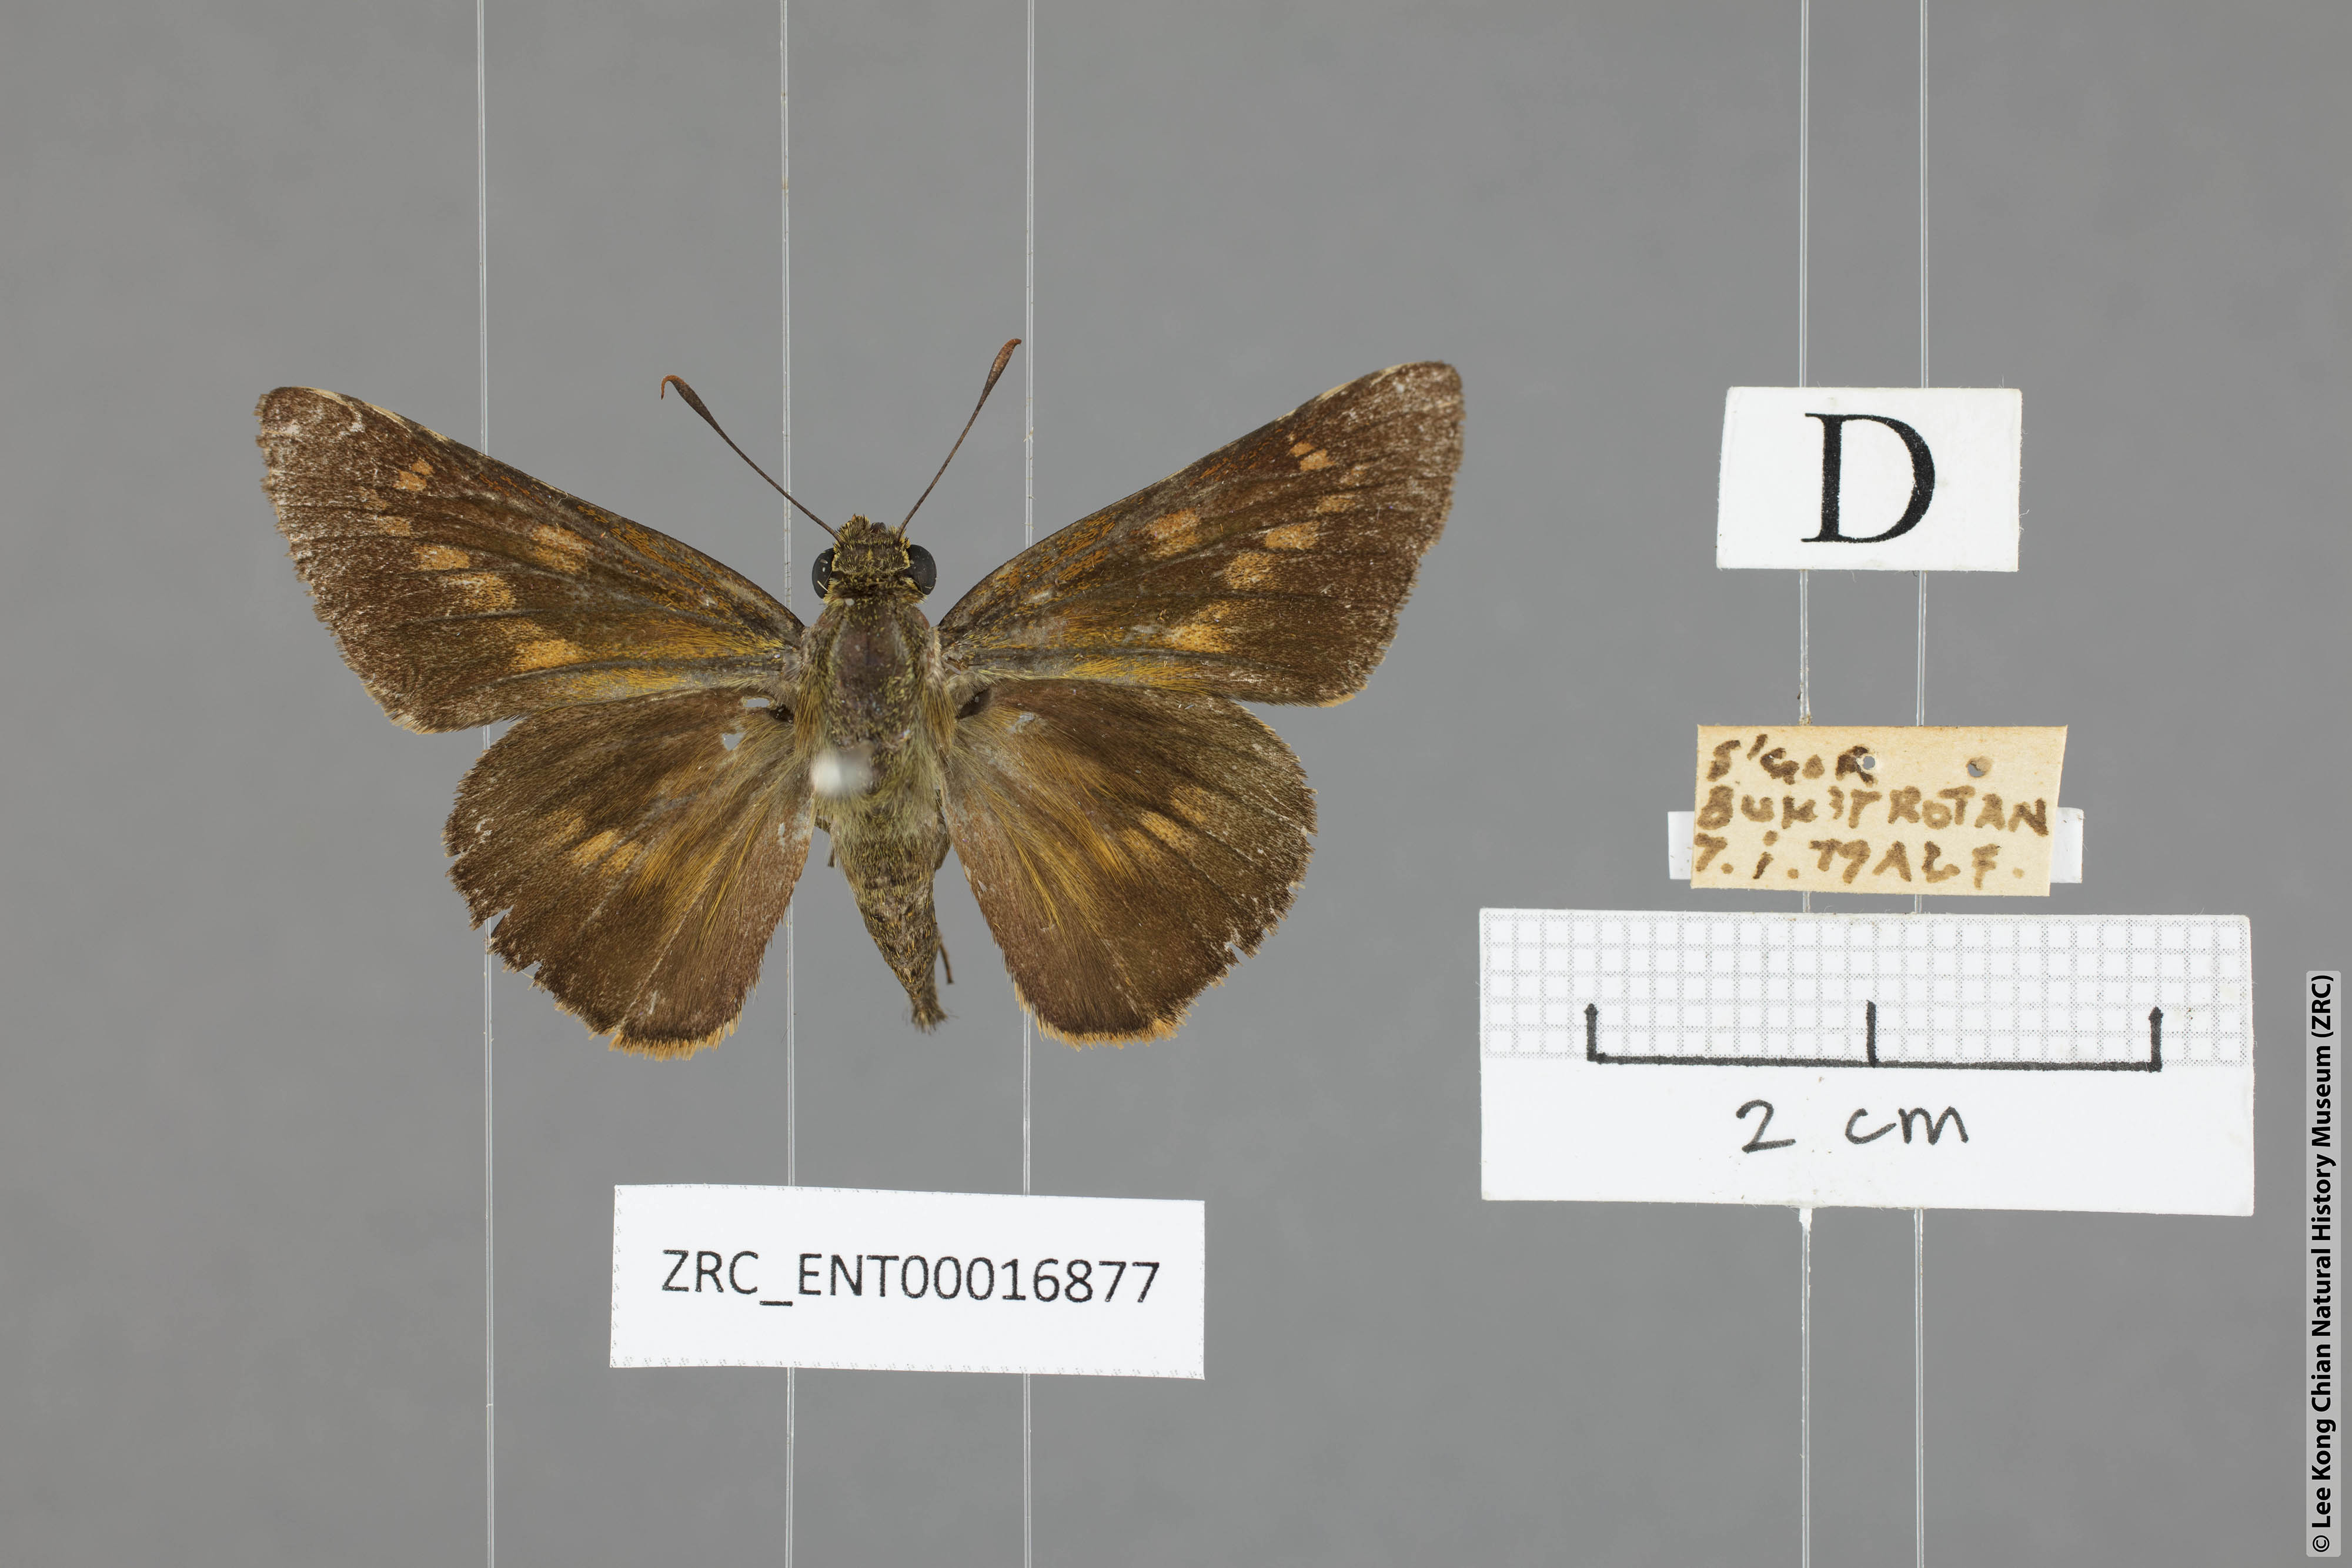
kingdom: Animalia
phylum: Arthropoda
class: Insecta
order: Lepidoptera
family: Hesperiidae
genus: Cephrenes
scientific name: Cephrenes
